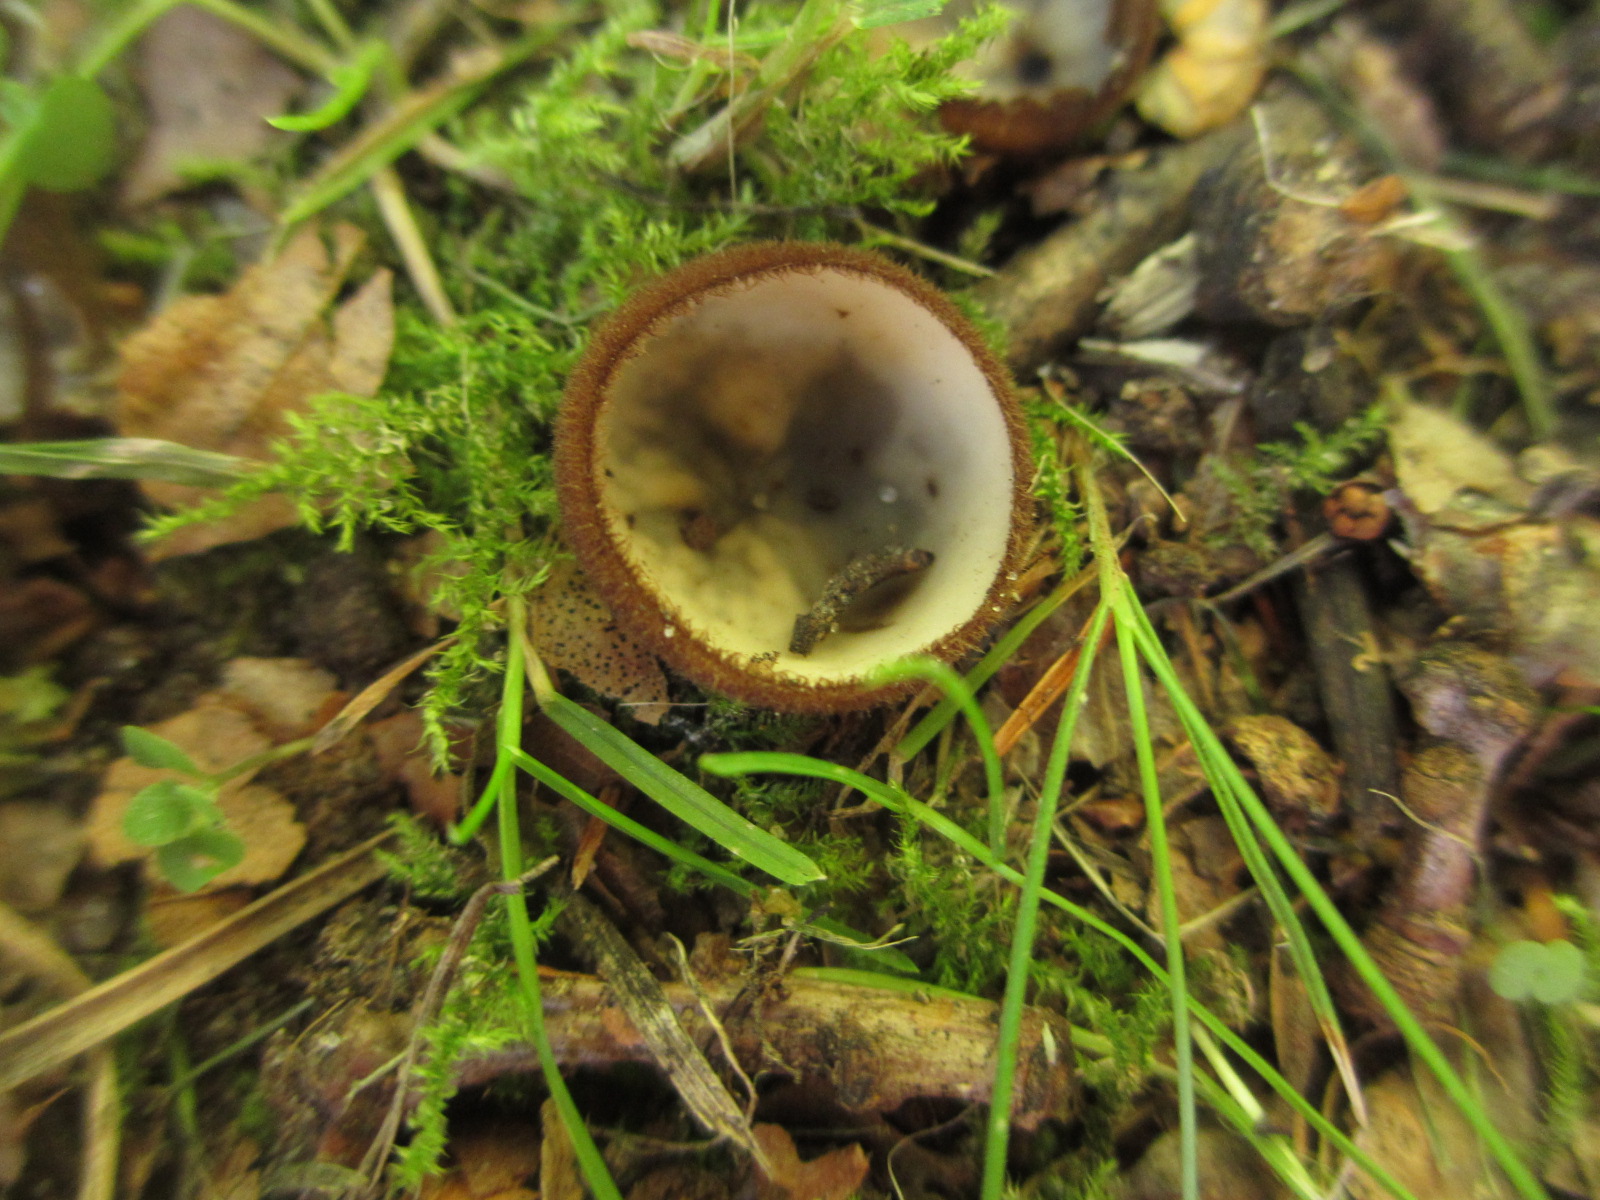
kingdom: Fungi
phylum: Ascomycota
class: Pezizomycetes
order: Pezizales
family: Pyronemataceae
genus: Humaria
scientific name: Humaria hemisphaerica
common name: halvkugleformet børstebæger
